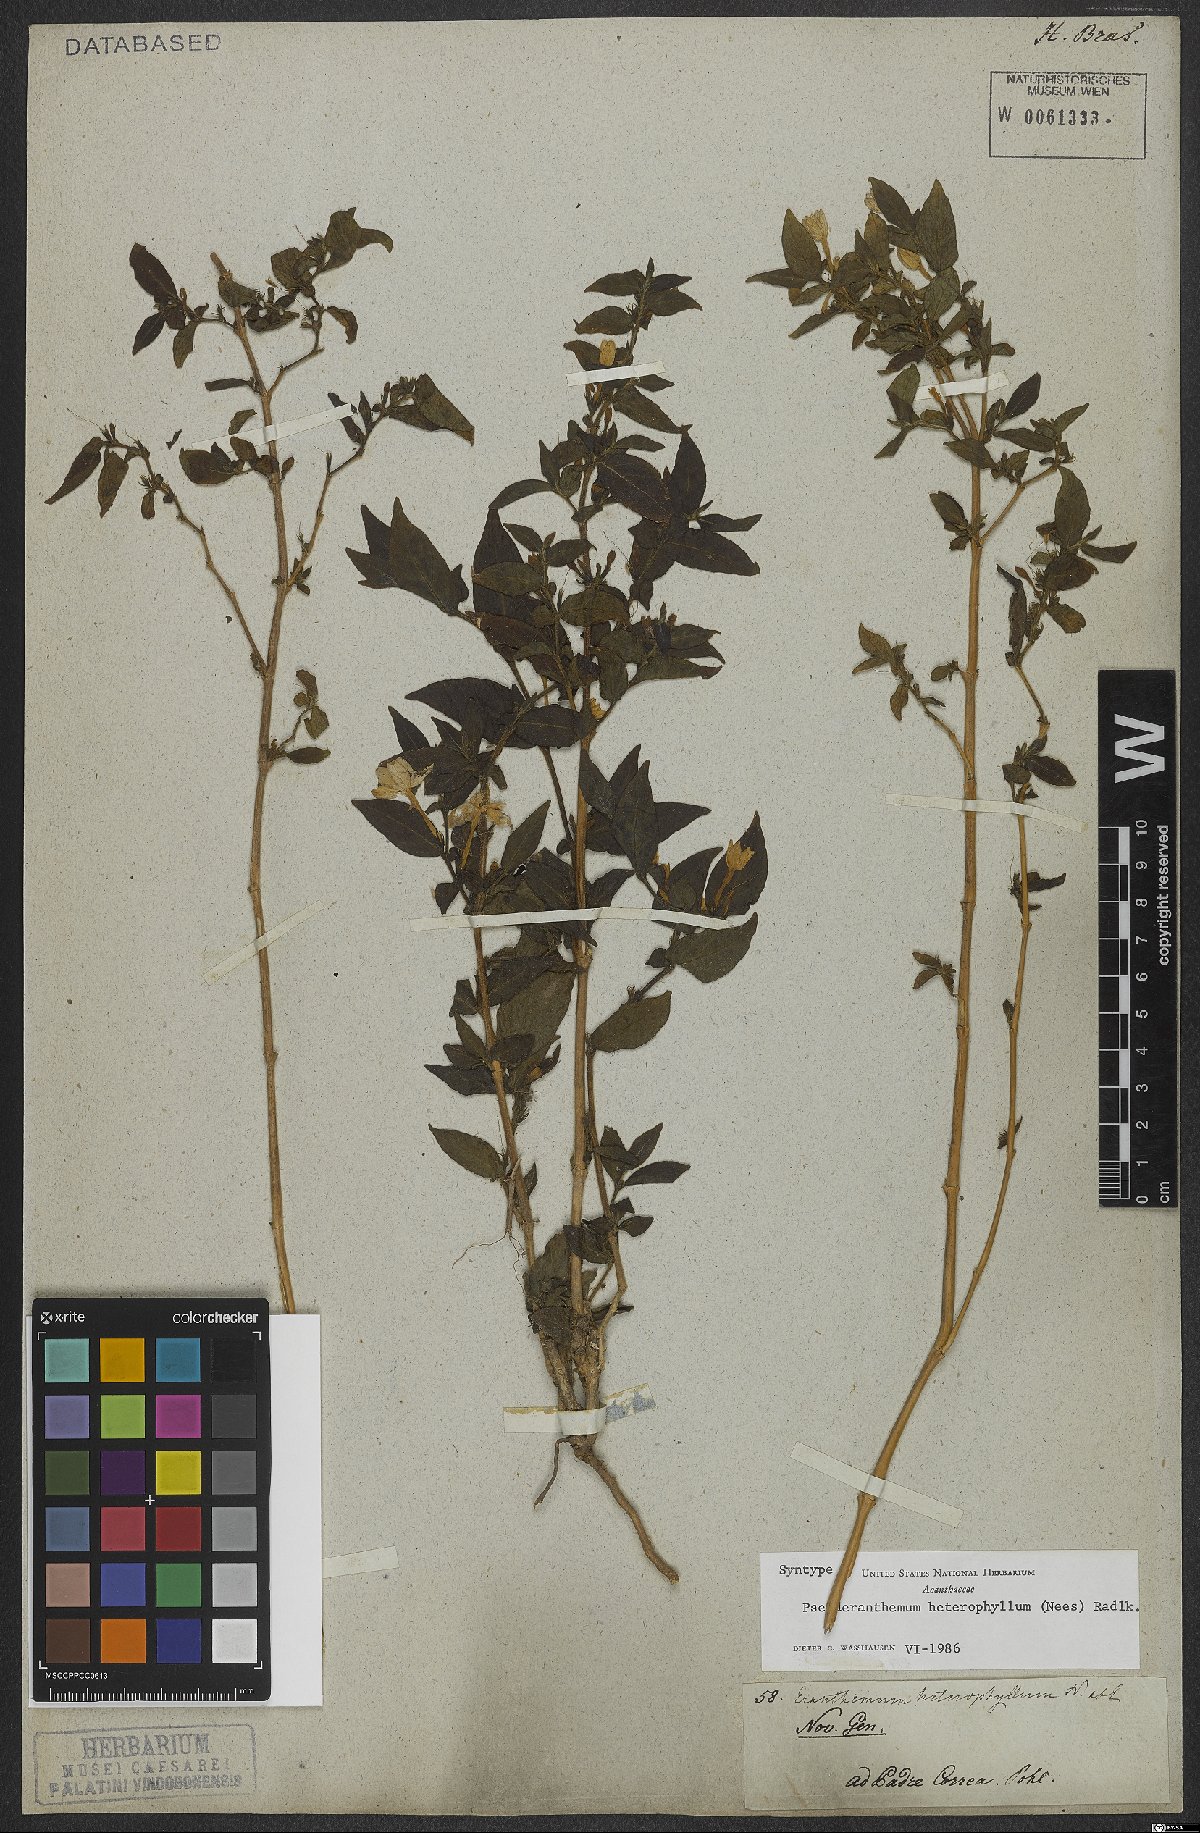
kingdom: Plantae
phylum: Tracheophyta
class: Magnoliopsida
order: Lamiales
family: Acanthaceae
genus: Pseuderanthemum
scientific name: Pseuderanthemum heterophyllum
